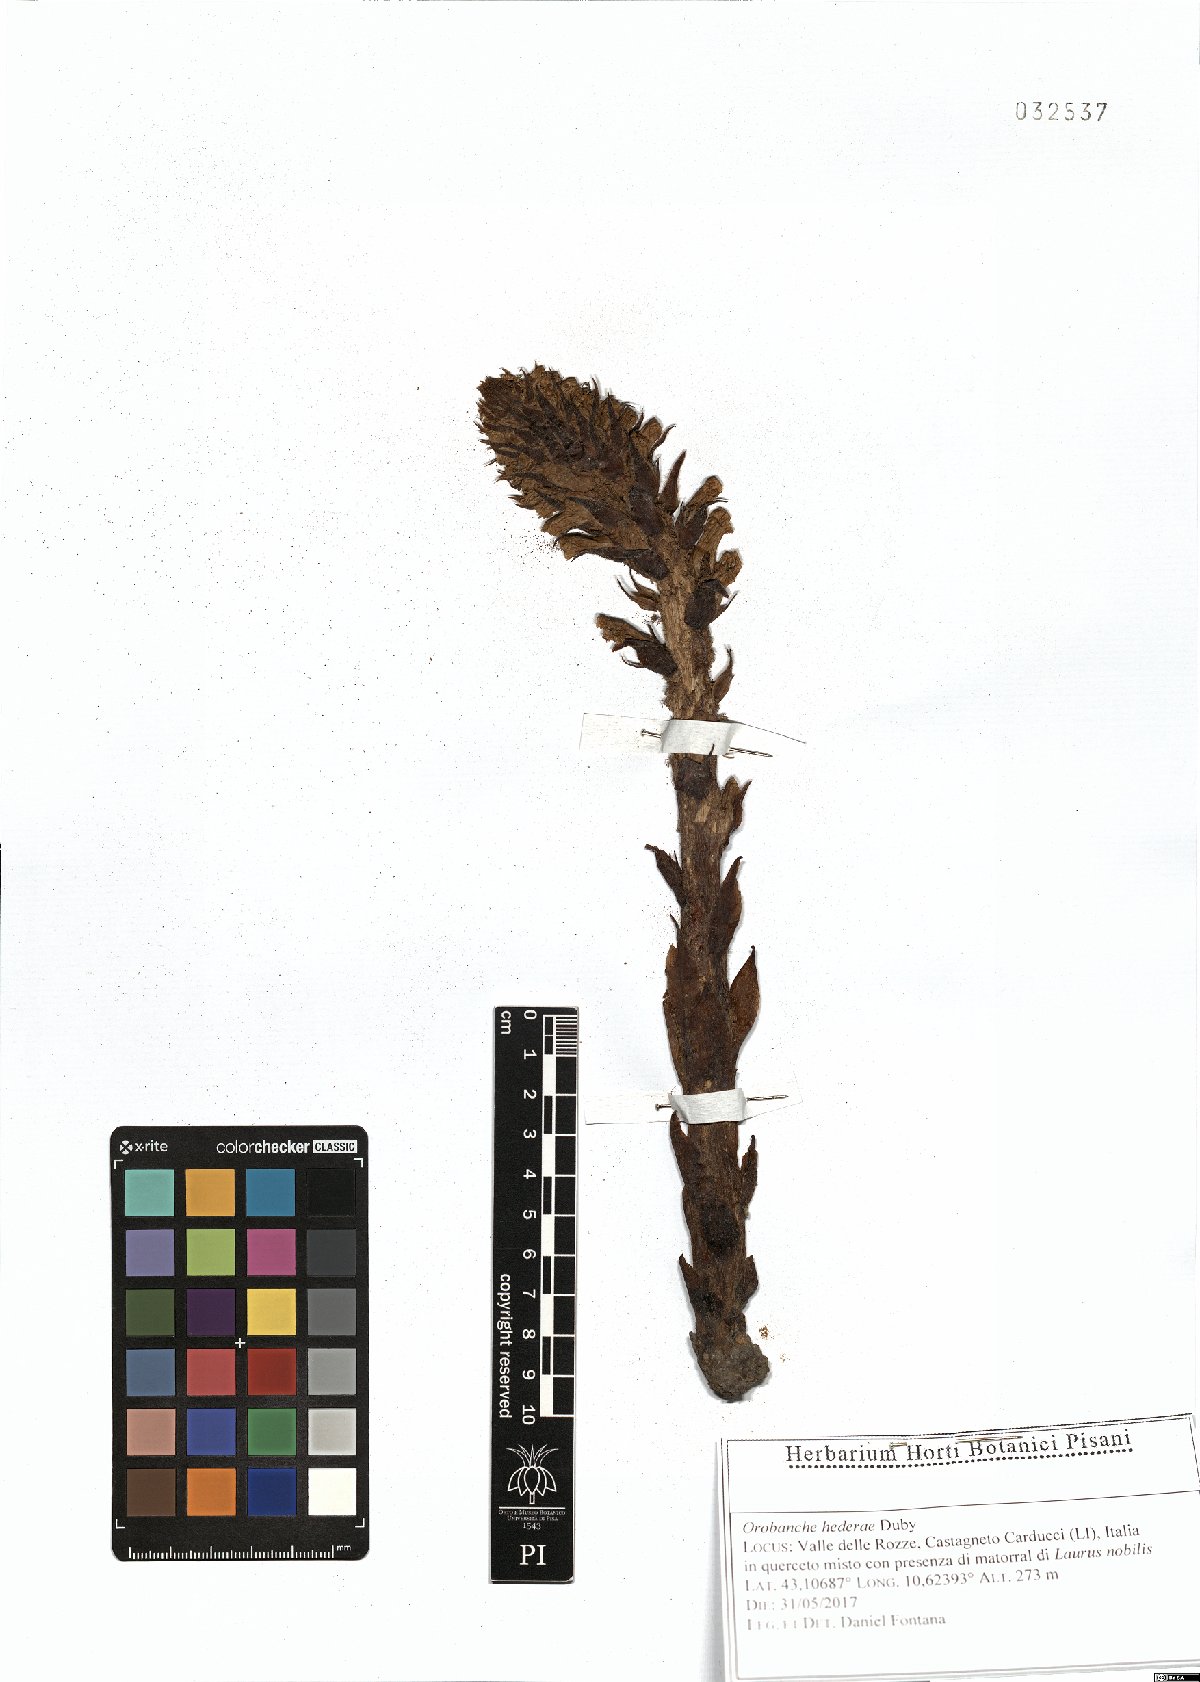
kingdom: Plantae
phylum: Tracheophyta
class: Magnoliopsida
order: Lamiales
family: Orobanchaceae
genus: Orobanche
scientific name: Orobanche hederae
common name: Ivy broomrape
